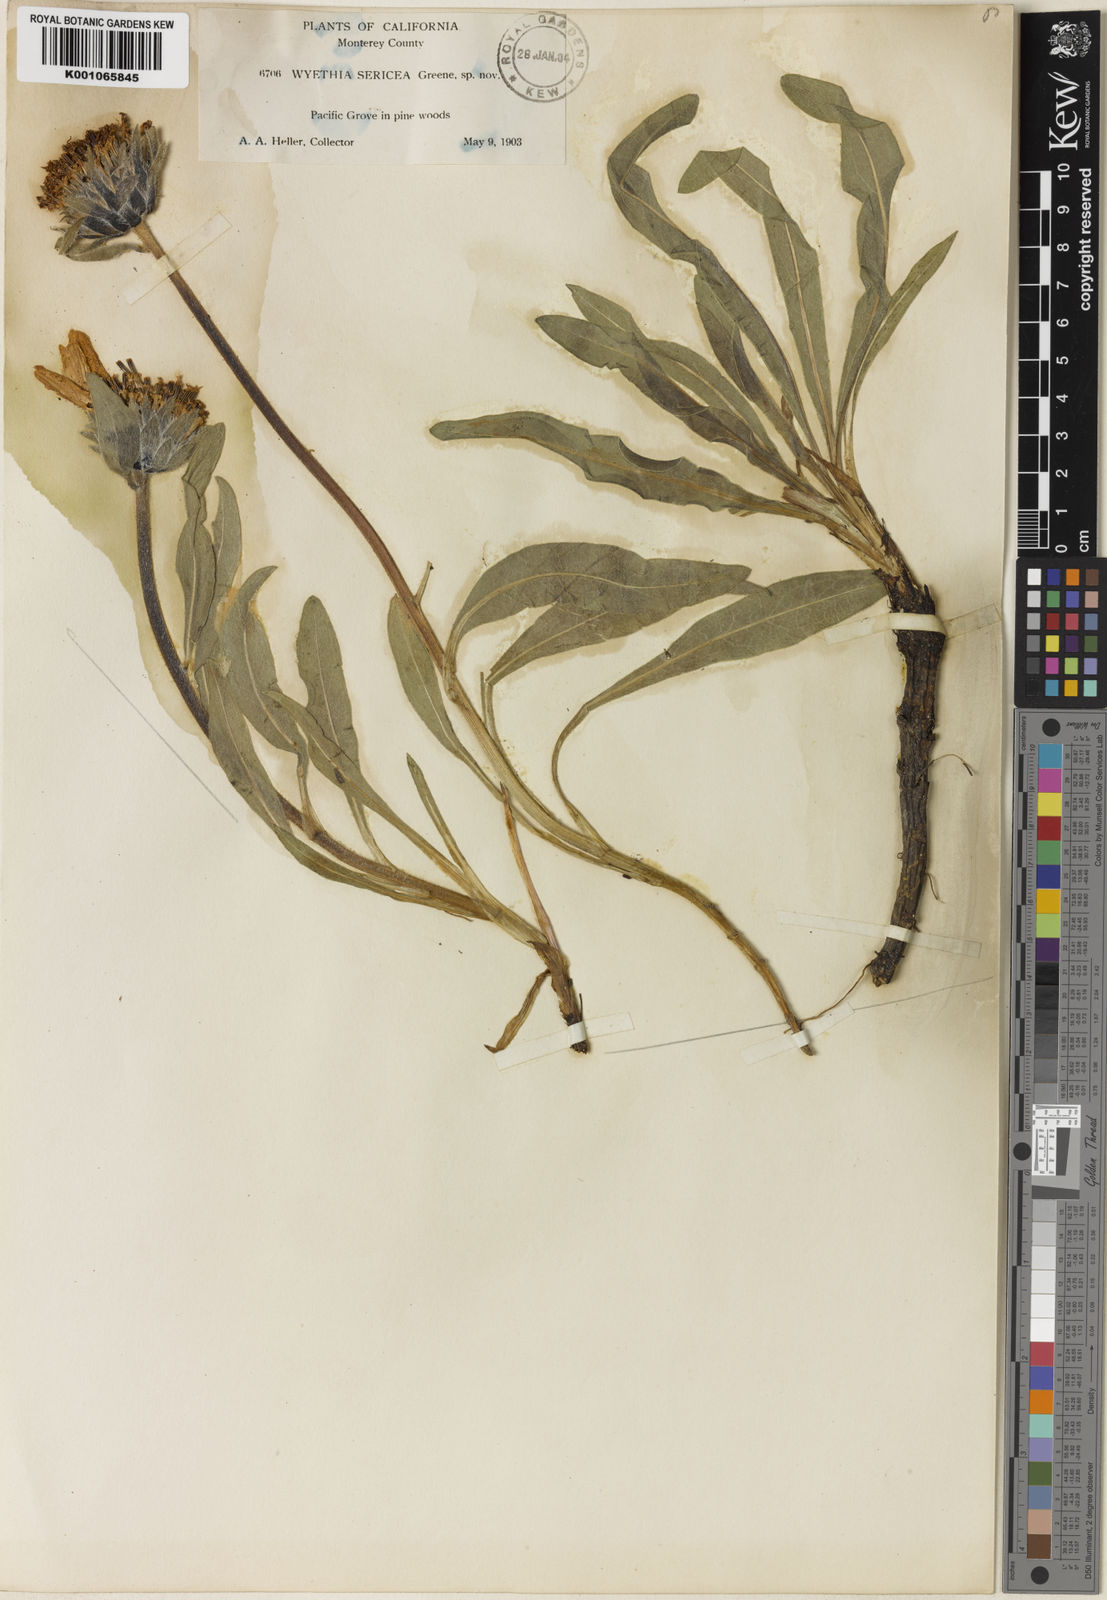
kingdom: Plantae
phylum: Tracheophyta
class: Magnoliopsida
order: Asterales
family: Asteraceae
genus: Wyethia
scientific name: Wyethia
